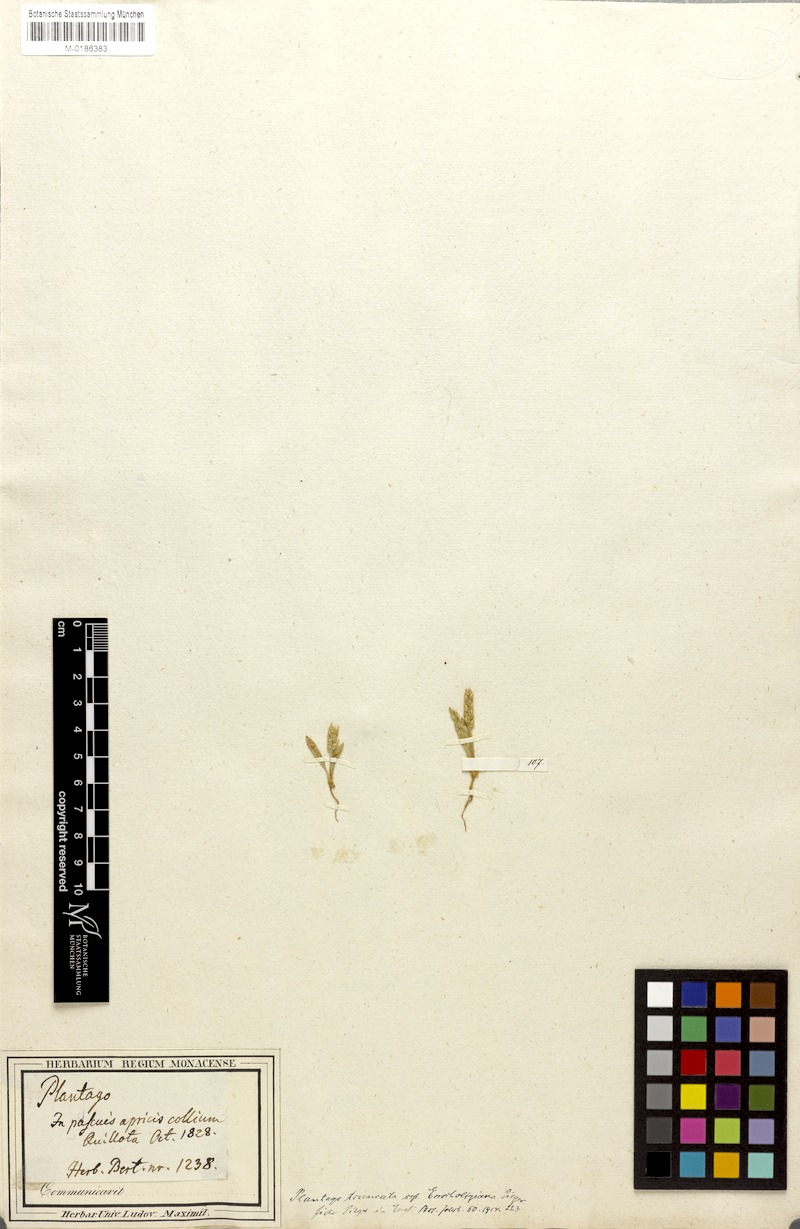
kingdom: Plantae
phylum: Tracheophyta
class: Magnoliopsida
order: Lamiales
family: Plantaginaceae
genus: Plantago
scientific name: Plantago firma
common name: Chilean plantain
